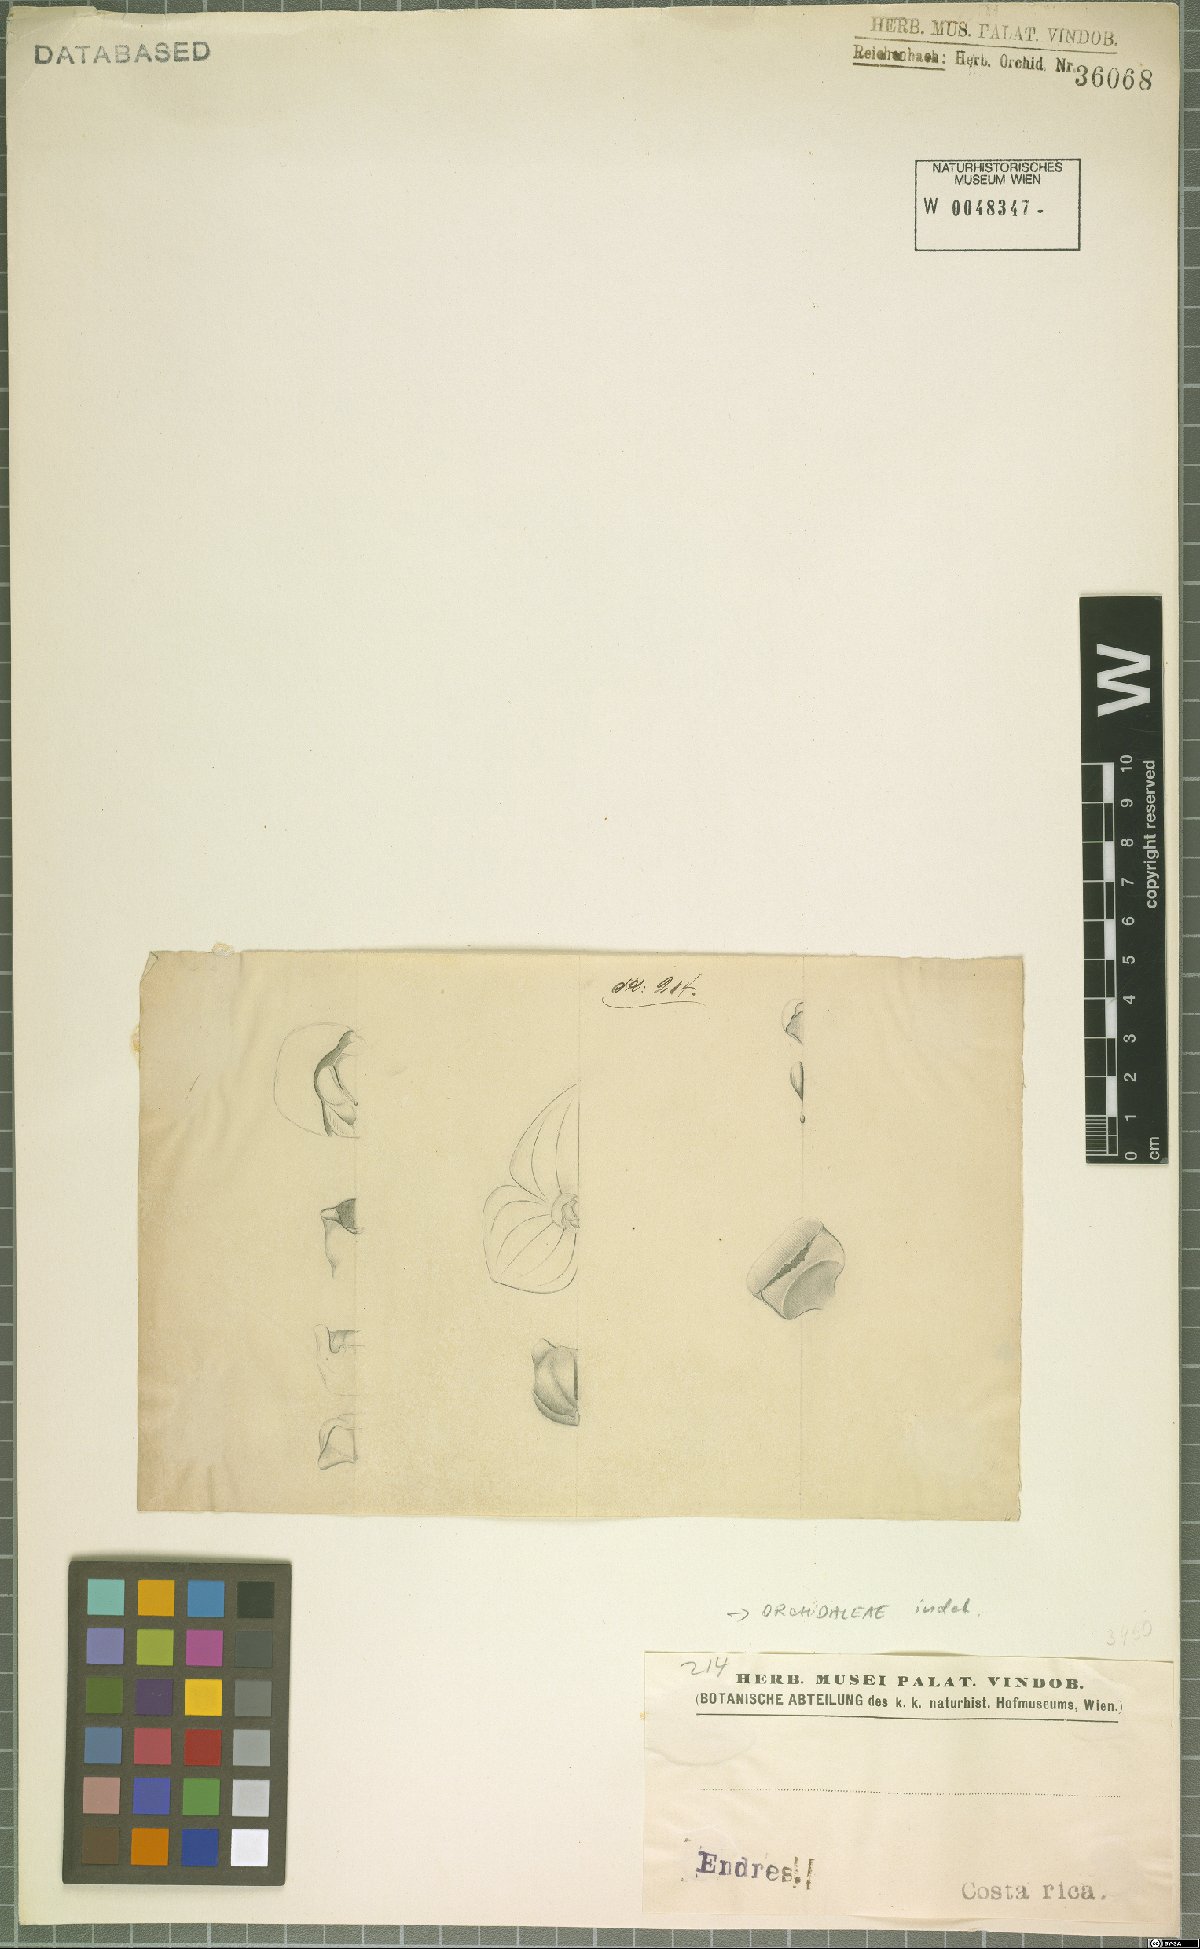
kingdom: Plantae
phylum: Tracheophyta
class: Liliopsida
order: Asparagales
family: Orchidaceae
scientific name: Orchidaceae
